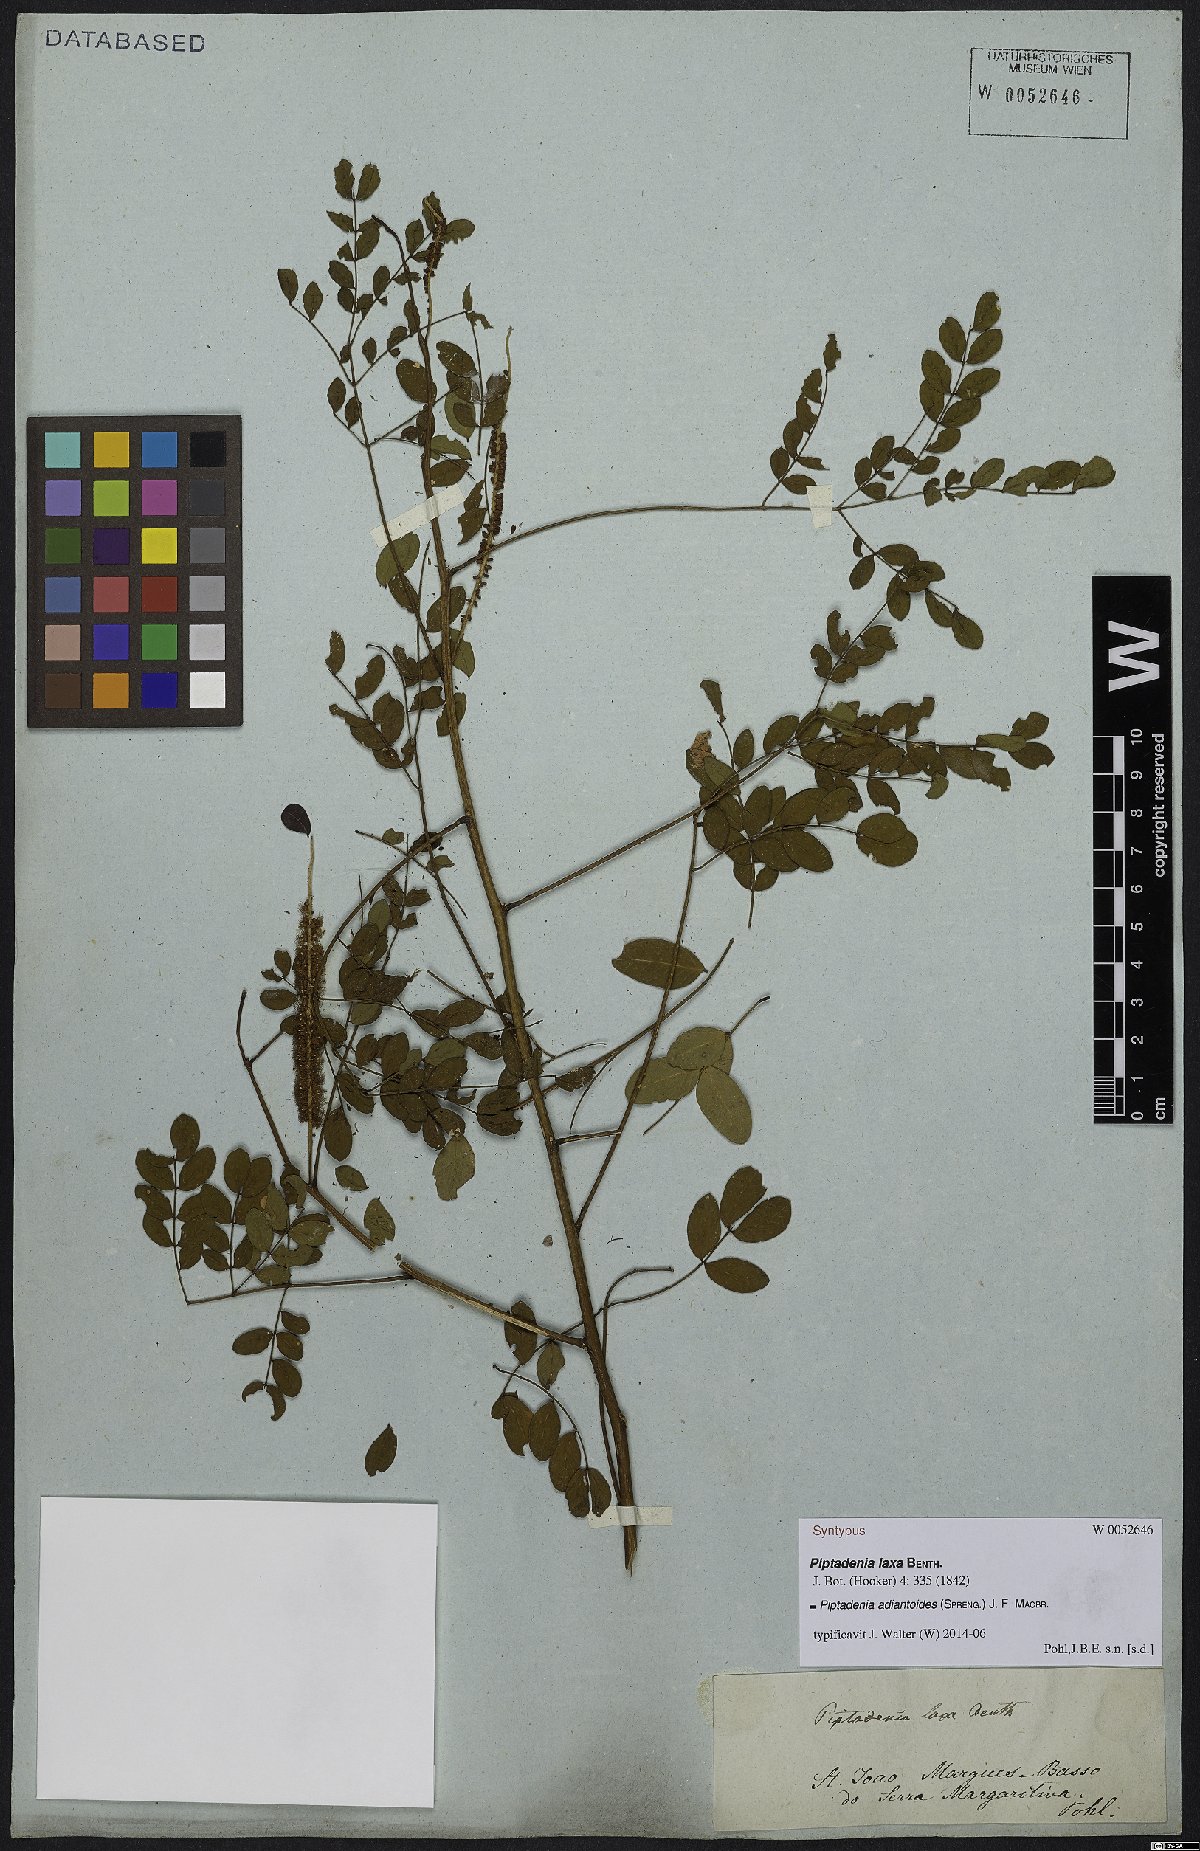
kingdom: Plantae
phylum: Tracheophyta
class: Magnoliopsida
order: Fabales
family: Fabaceae
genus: Piptadenia
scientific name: Piptadenia adiantoides
